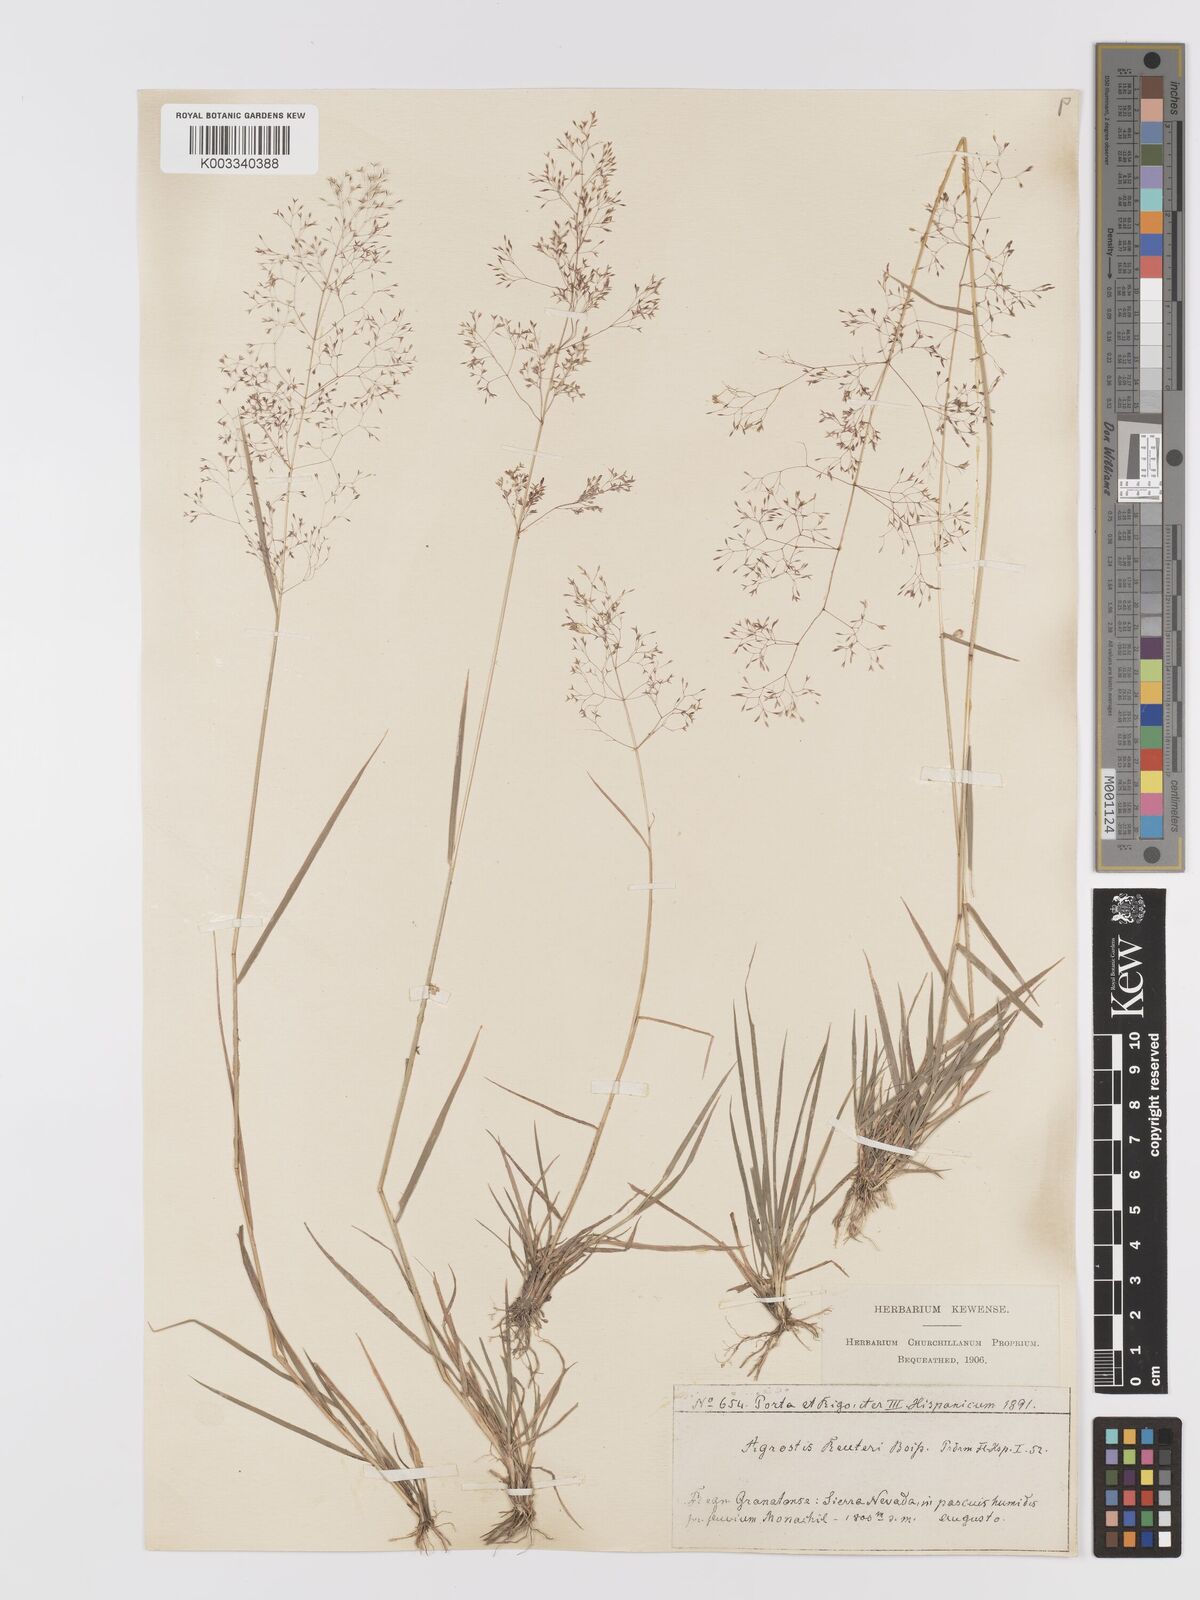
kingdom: Plantae
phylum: Tracheophyta
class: Liliopsida
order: Poales
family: Poaceae
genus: Agrostis
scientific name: Agrostis reuteri
